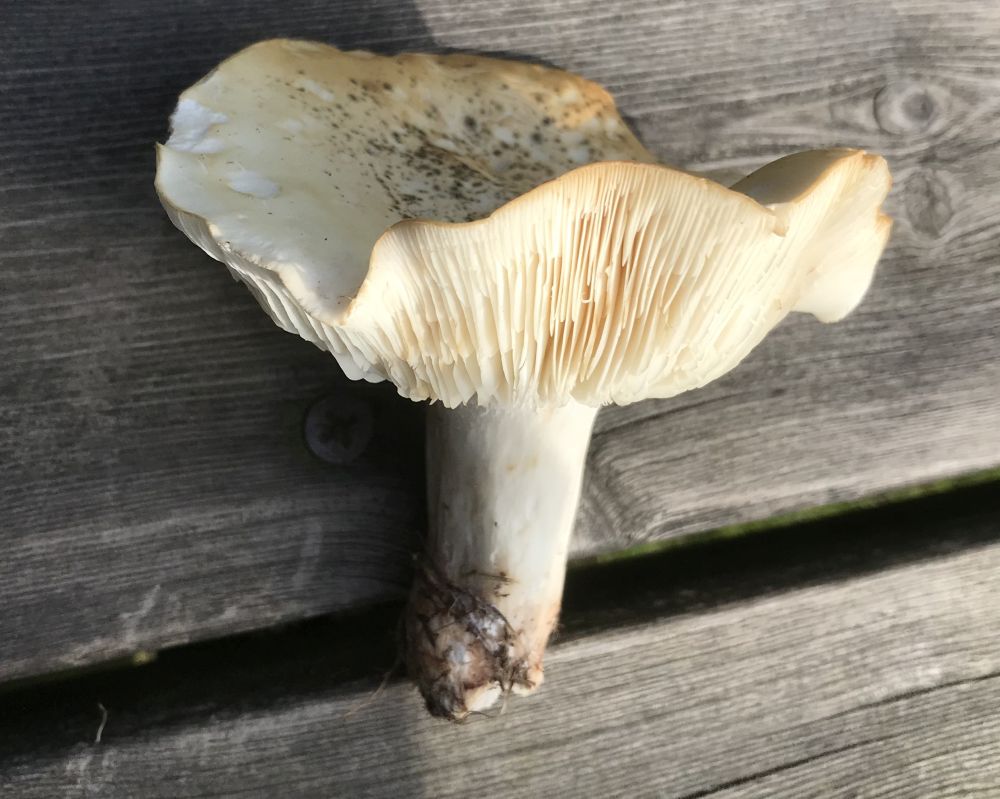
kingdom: Fungi
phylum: Basidiomycota
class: Agaricomycetes
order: Agaricales
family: Lyophyllaceae
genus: Calocybe
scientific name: Calocybe gambosa
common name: vårmusseron
